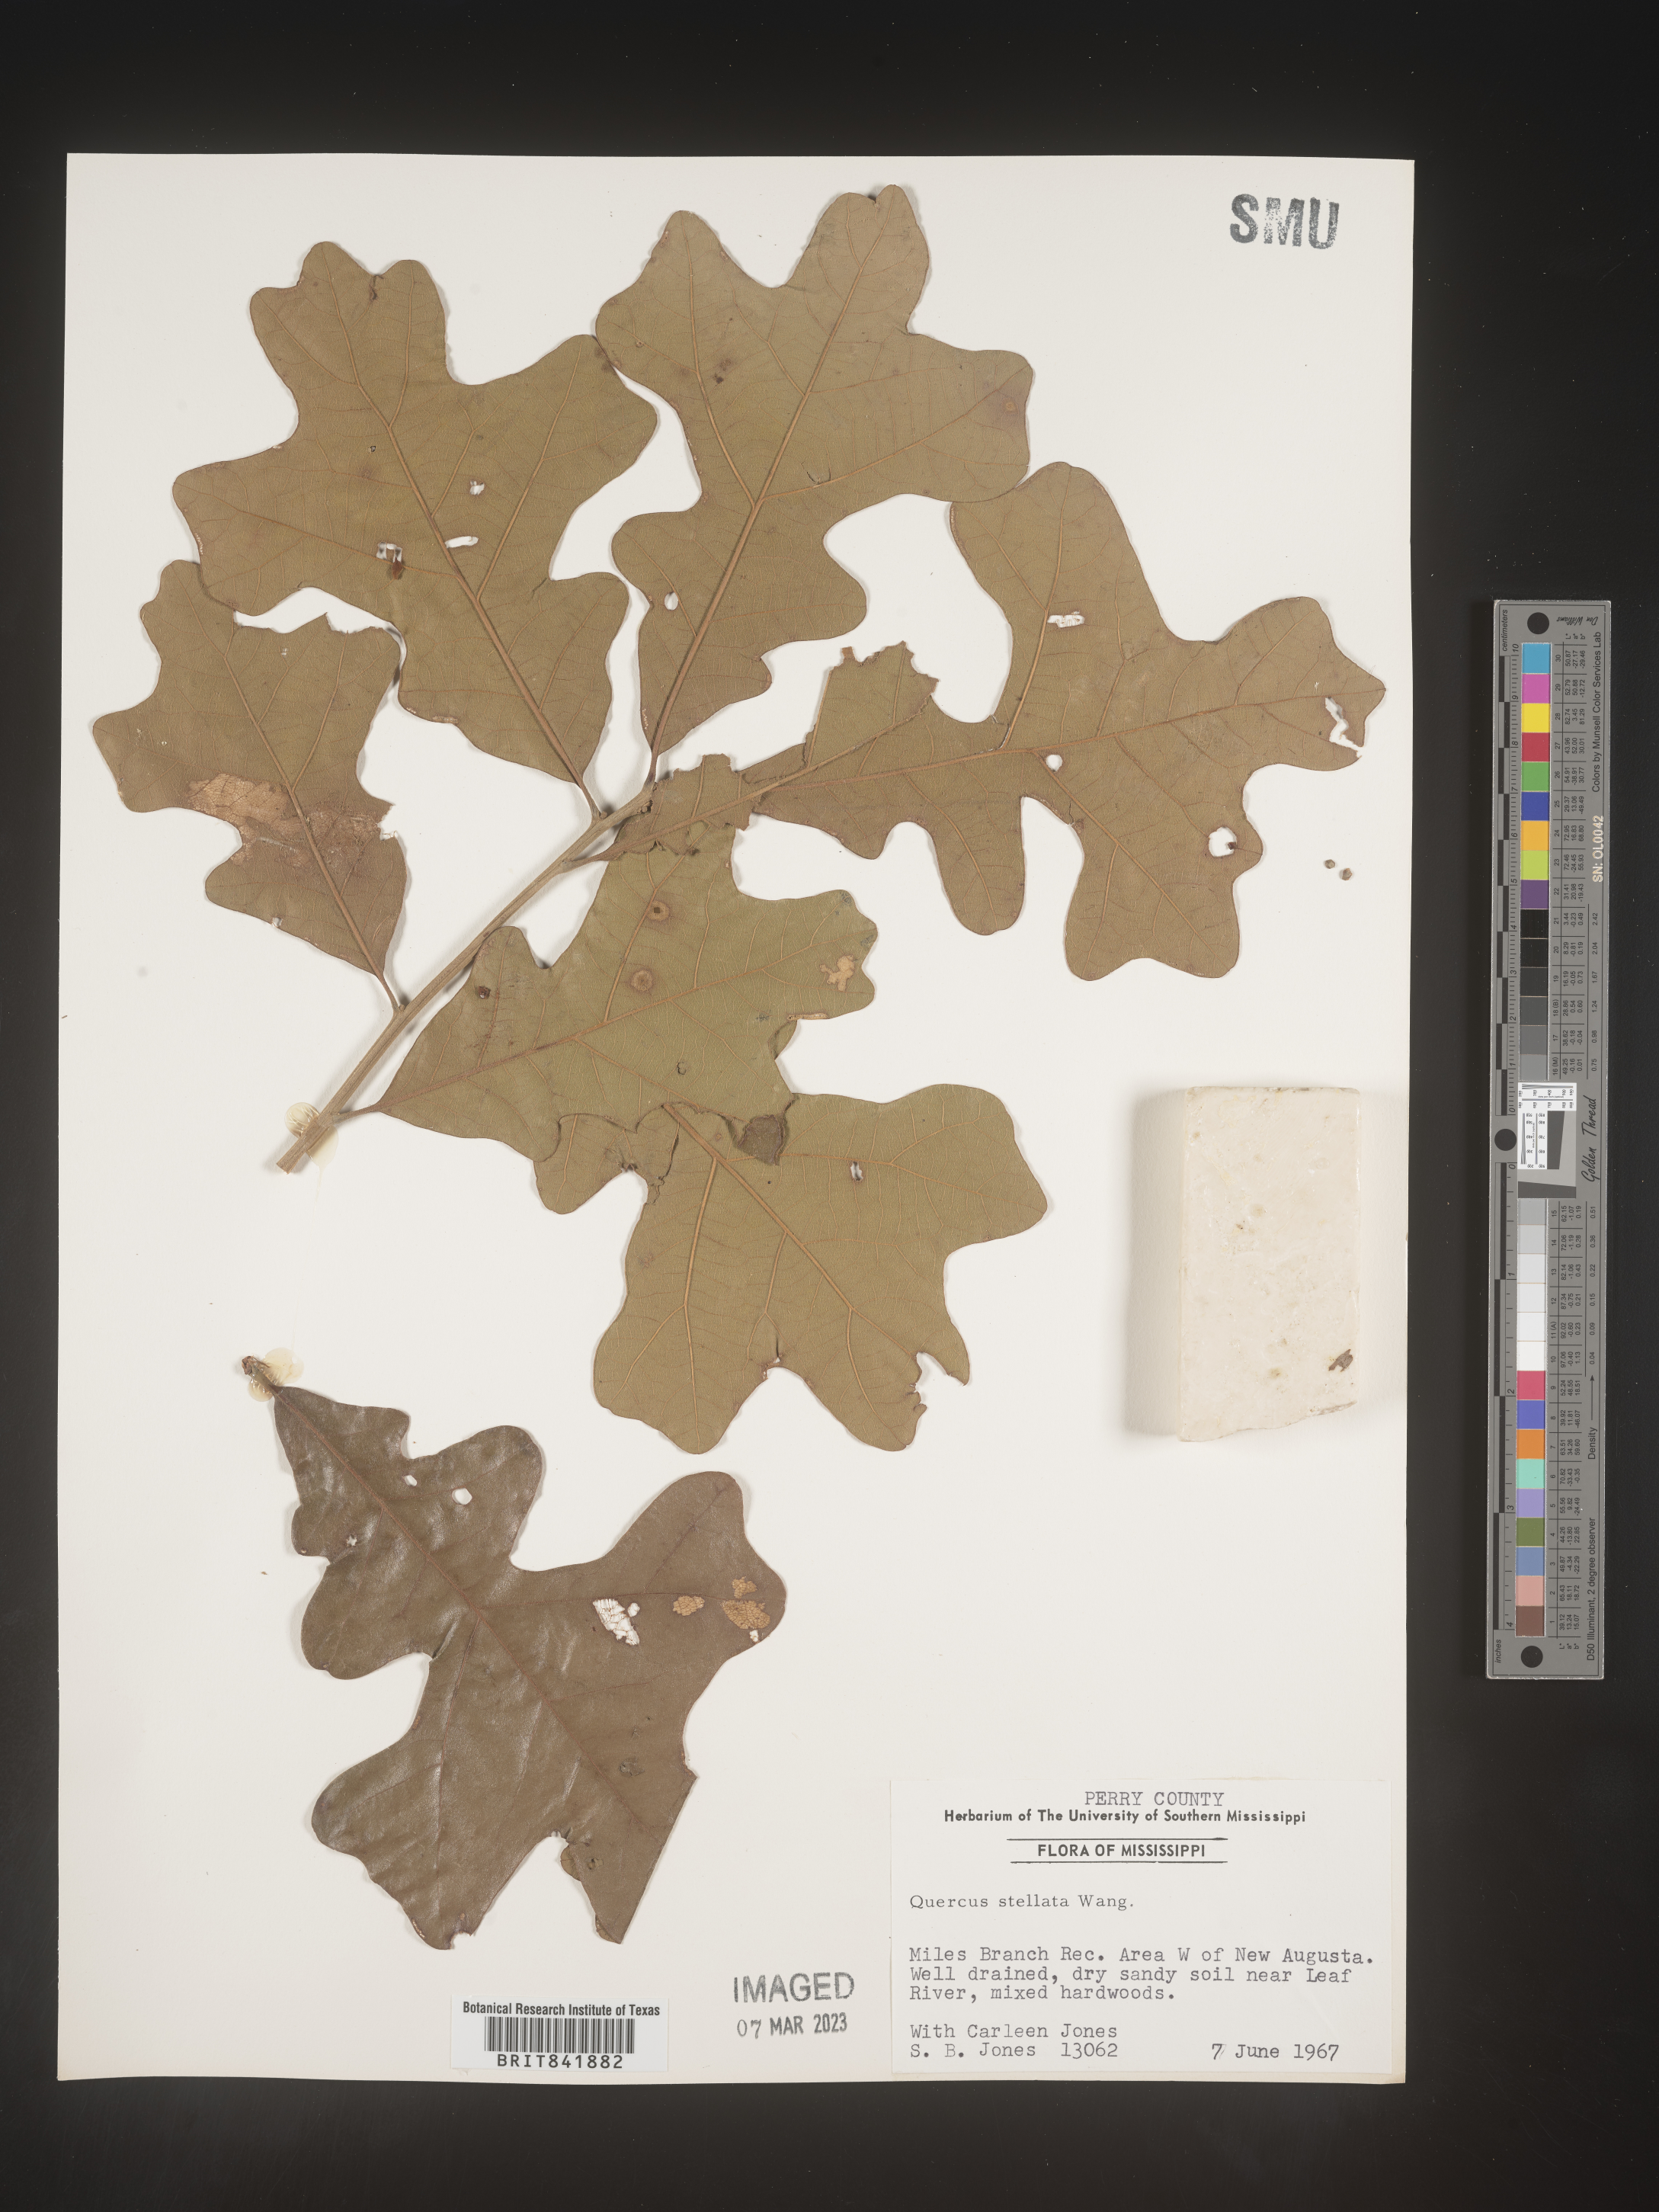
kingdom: Plantae
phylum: Tracheophyta
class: Magnoliopsida
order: Fagales
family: Fagaceae
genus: Quercus
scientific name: Quercus stellata
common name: Post oak
